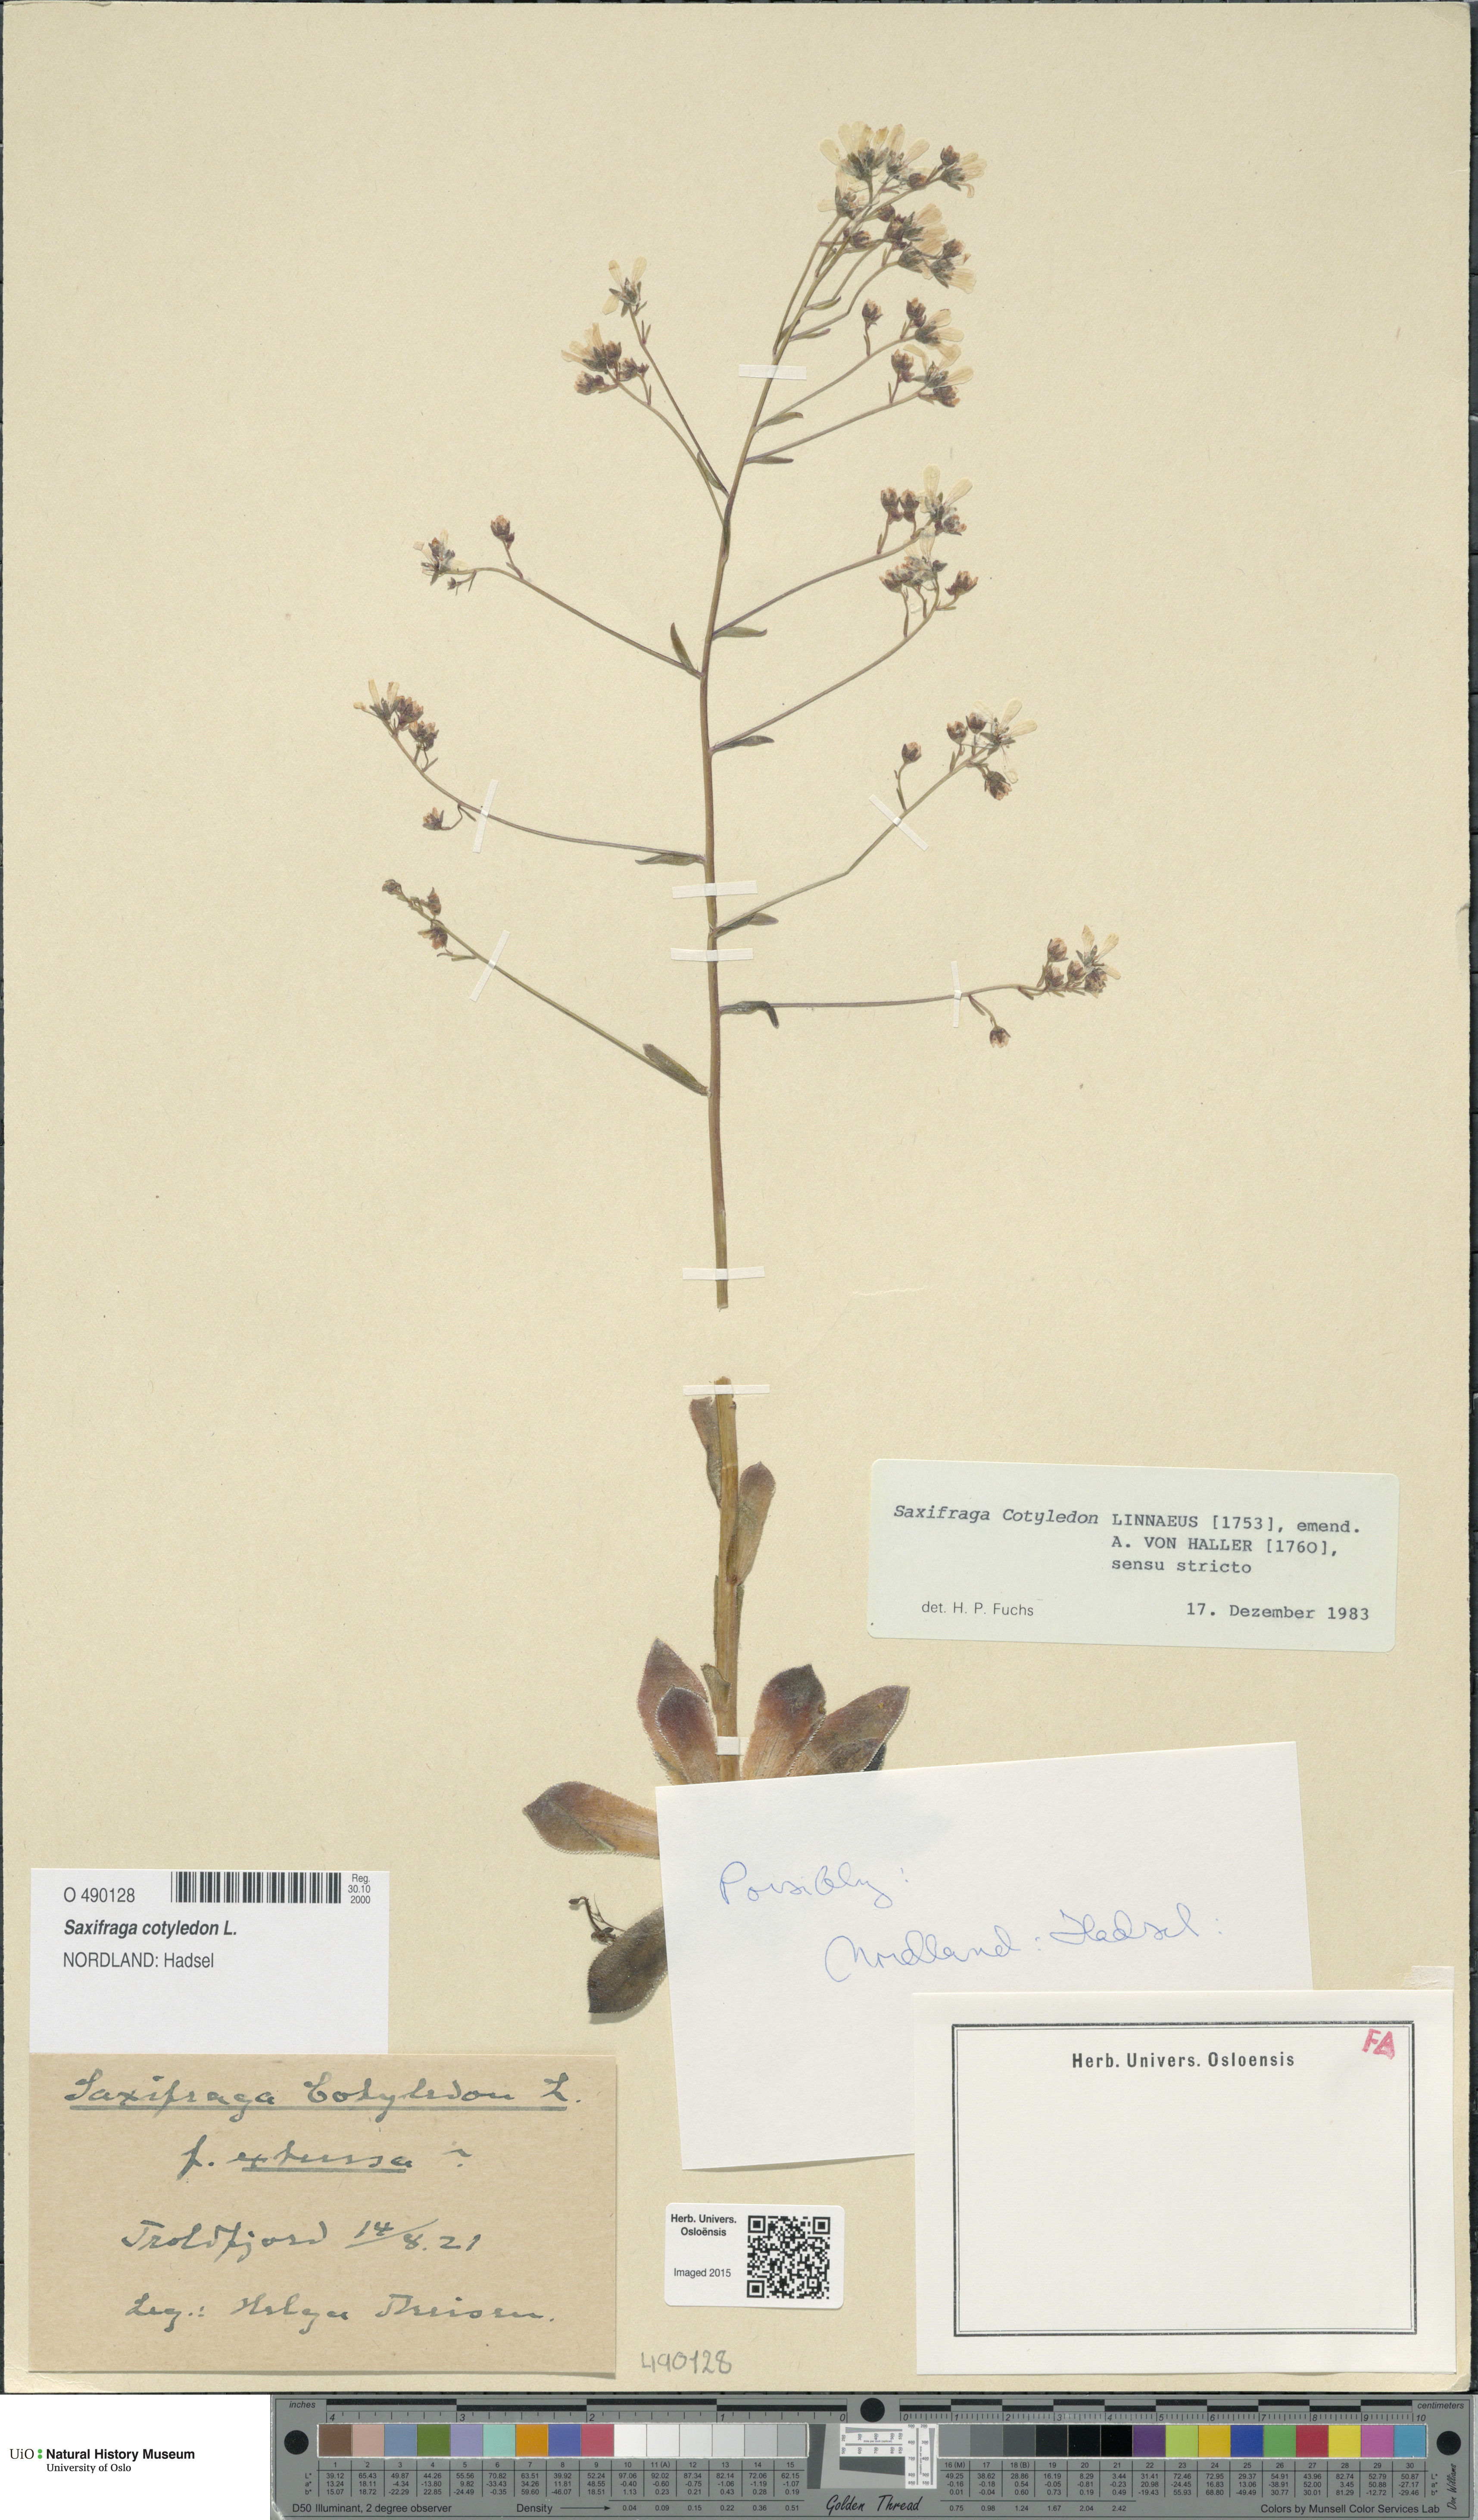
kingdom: Plantae
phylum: Tracheophyta
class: Magnoliopsida
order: Saxifragales
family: Saxifragaceae
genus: Saxifraga
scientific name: Saxifraga cotyledon
